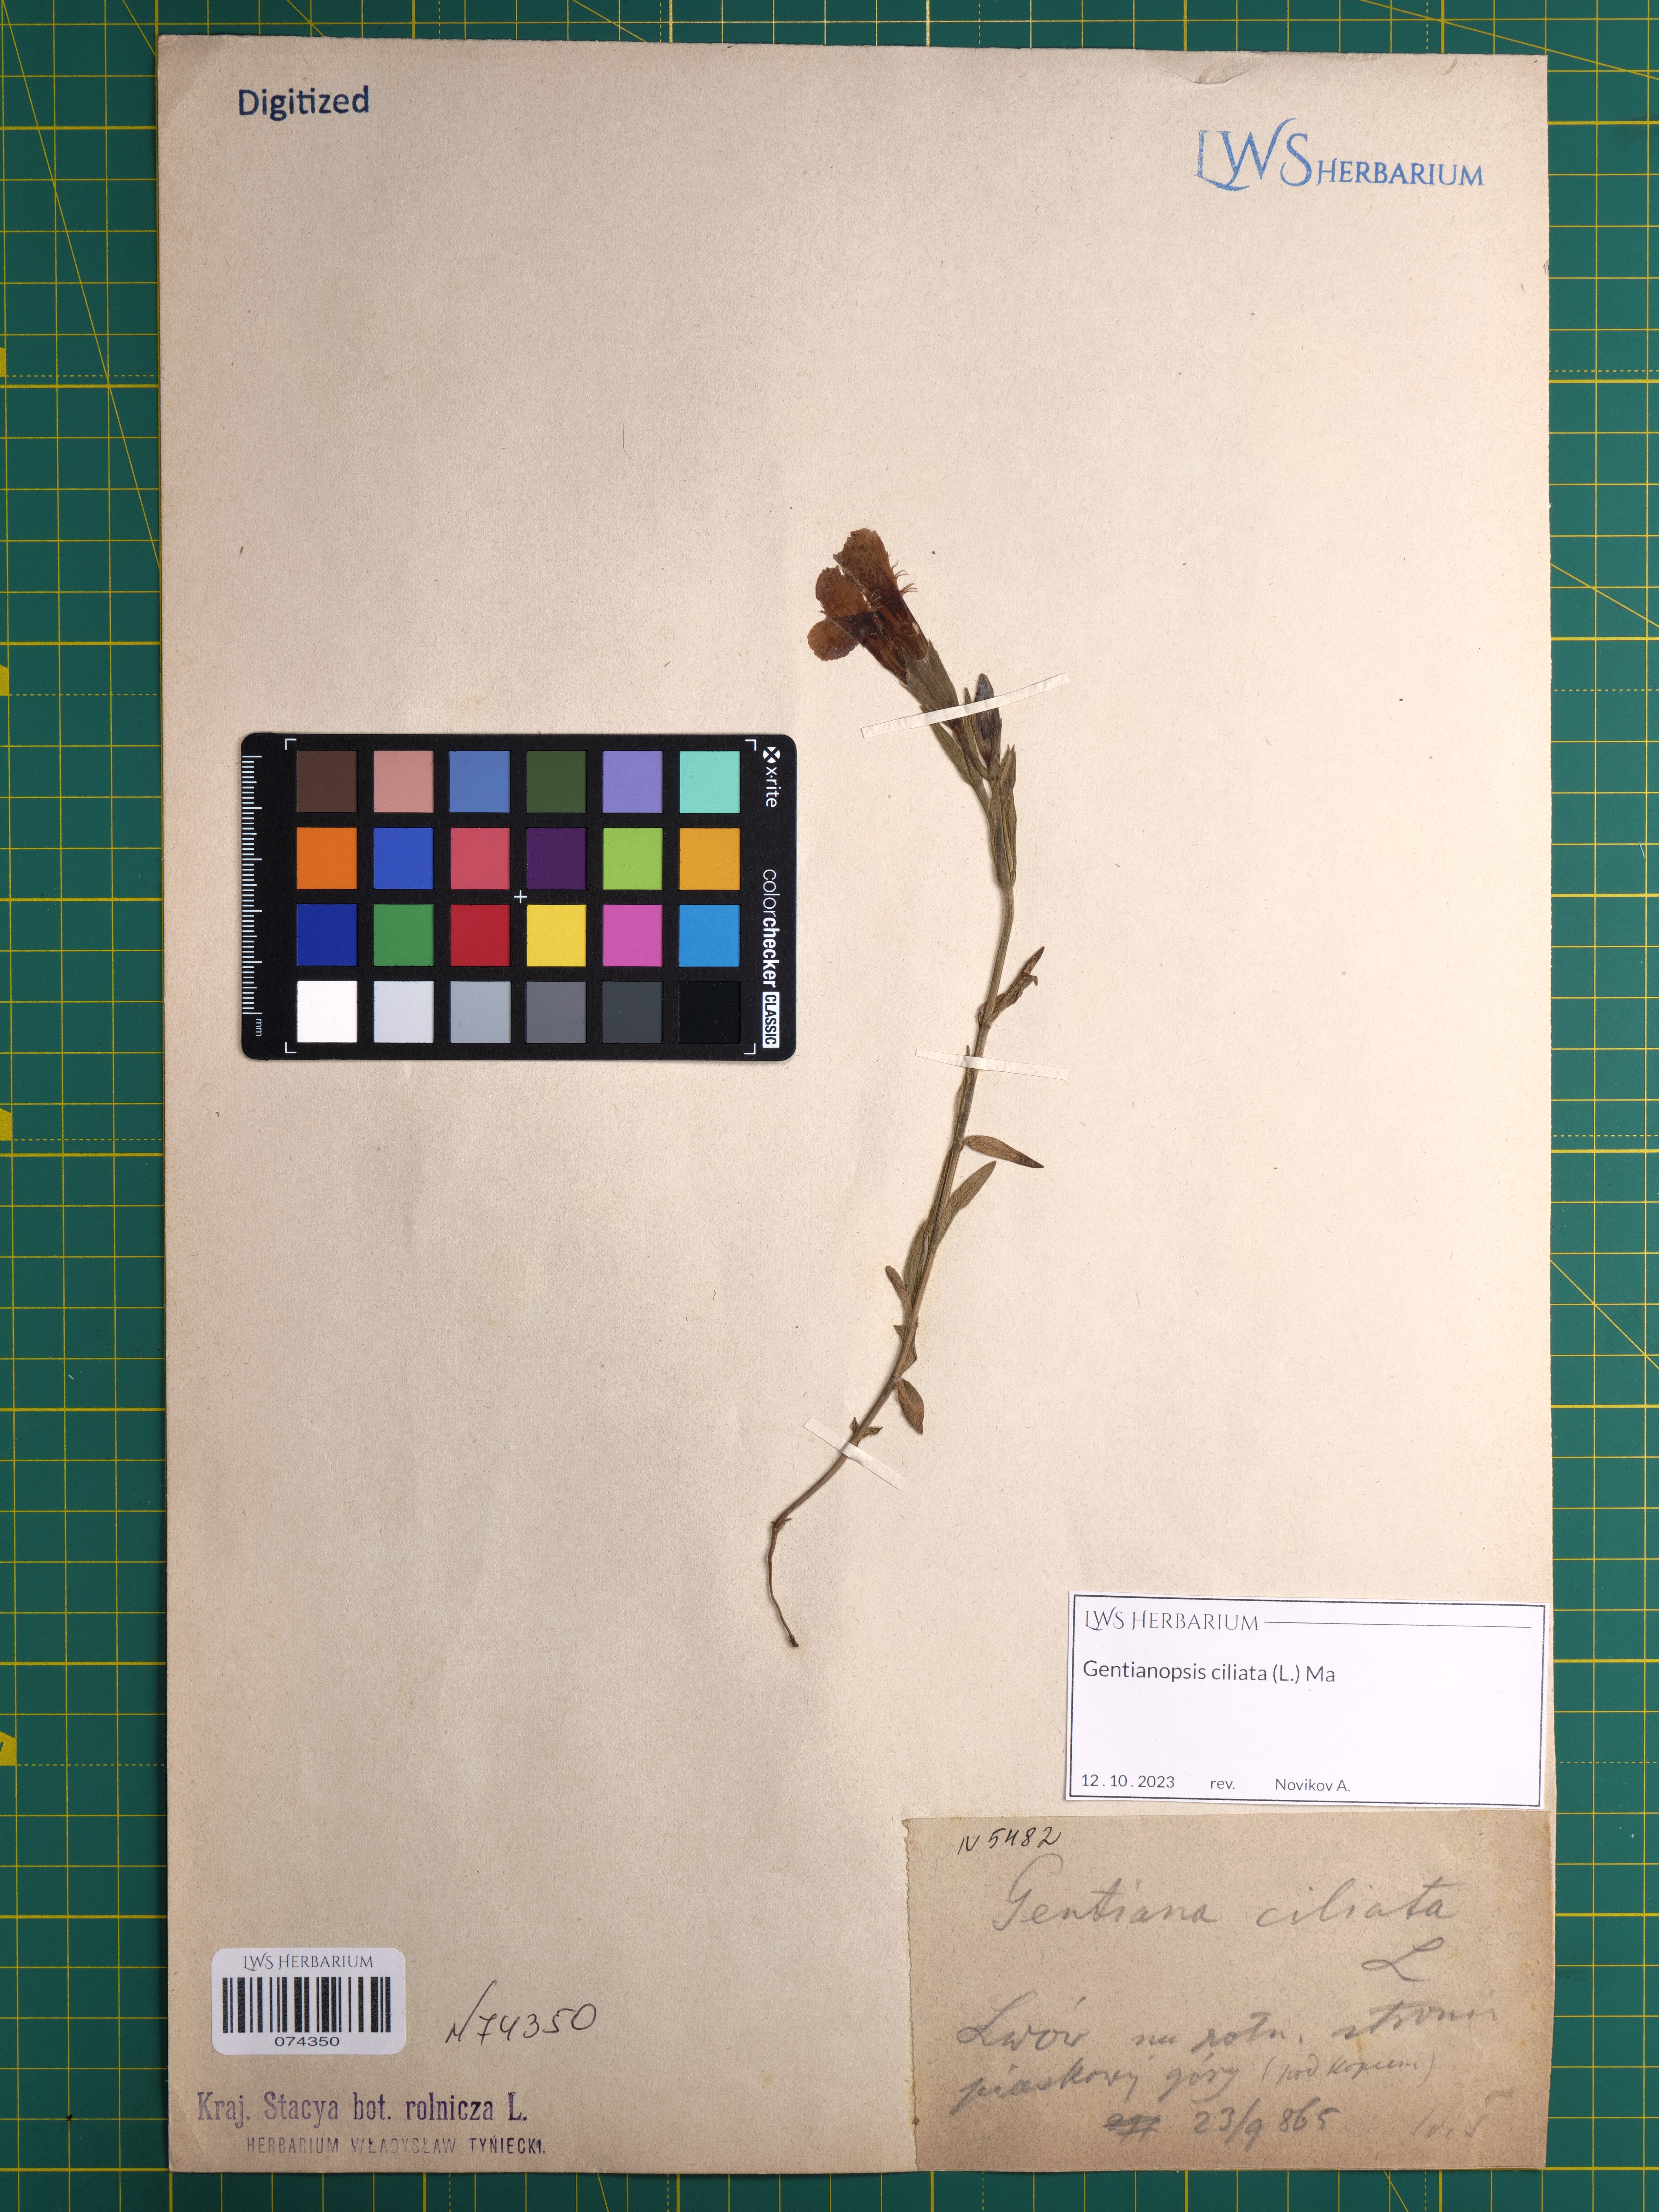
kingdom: Plantae
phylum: Tracheophyta
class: Magnoliopsida
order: Gentianales
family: Gentianaceae
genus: Gentianopsis
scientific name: Gentianopsis ciliata
